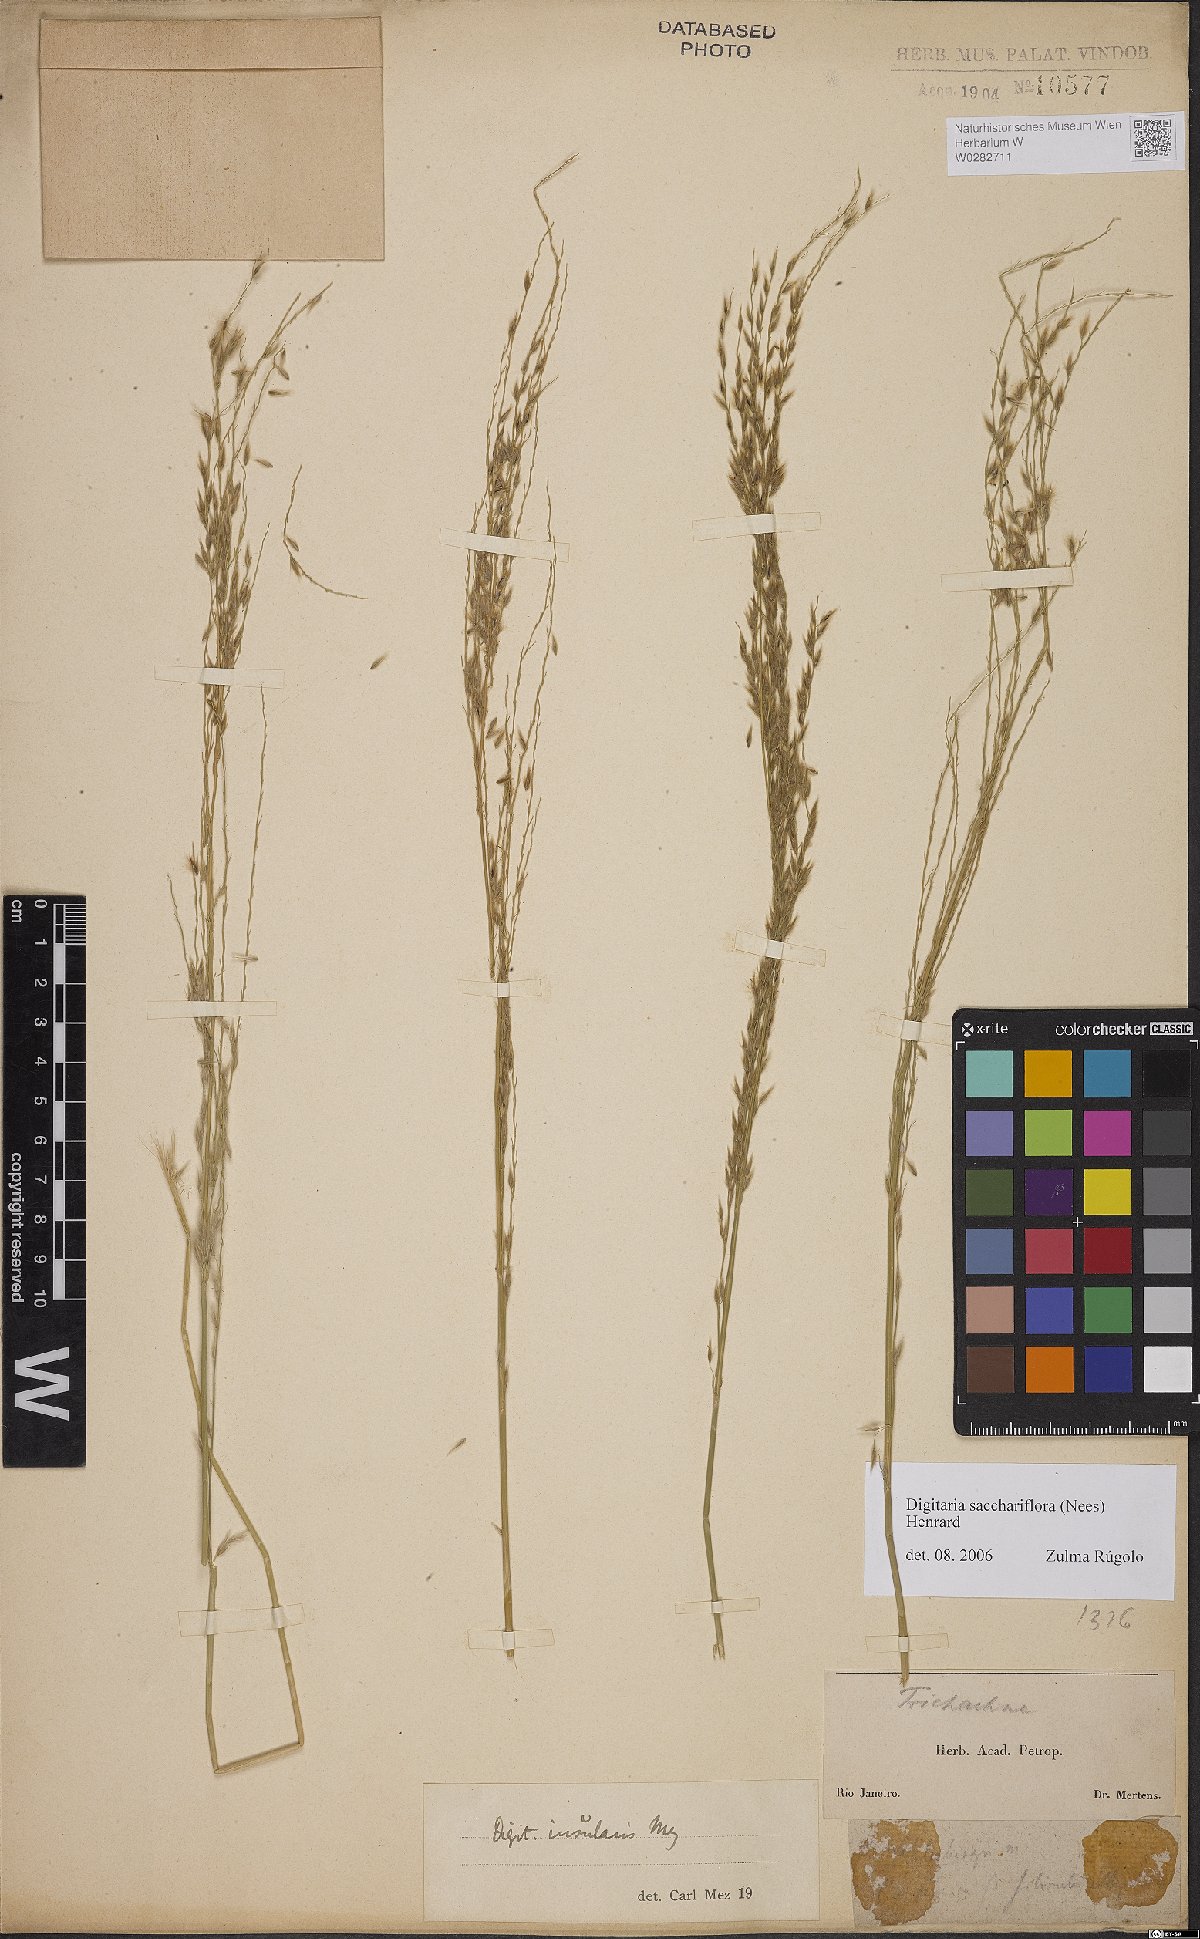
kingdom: Plantae
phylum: Tracheophyta
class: Liliopsida
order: Poales
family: Poaceae
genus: Digitaria
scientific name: Digitaria sacchariflora
